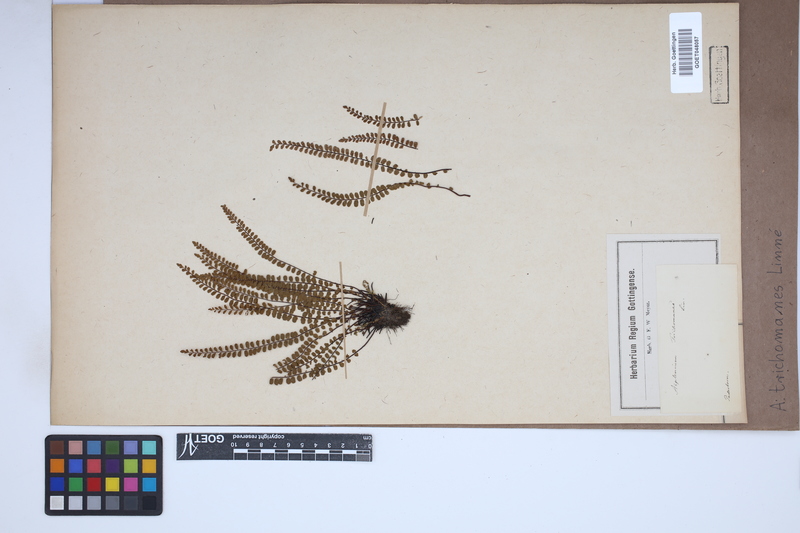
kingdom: Plantae
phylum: Tracheophyta
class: Polypodiopsida
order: Polypodiales
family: Aspleniaceae
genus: Asplenium
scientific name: Asplenium trichomanes
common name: Maidenhair spleenwort
